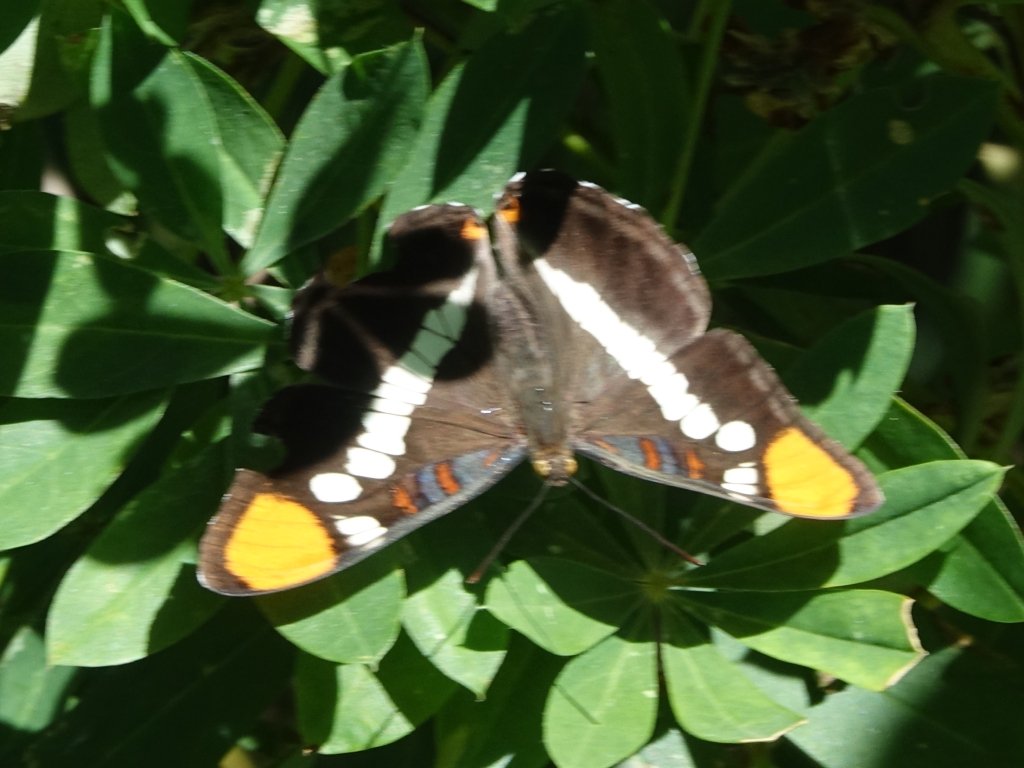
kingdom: Animalia
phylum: Arthropoda
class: Insecta
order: Lepidoptera
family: Nymphalidae
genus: Limenitis
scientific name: Limenitis bredowii
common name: California Sister
